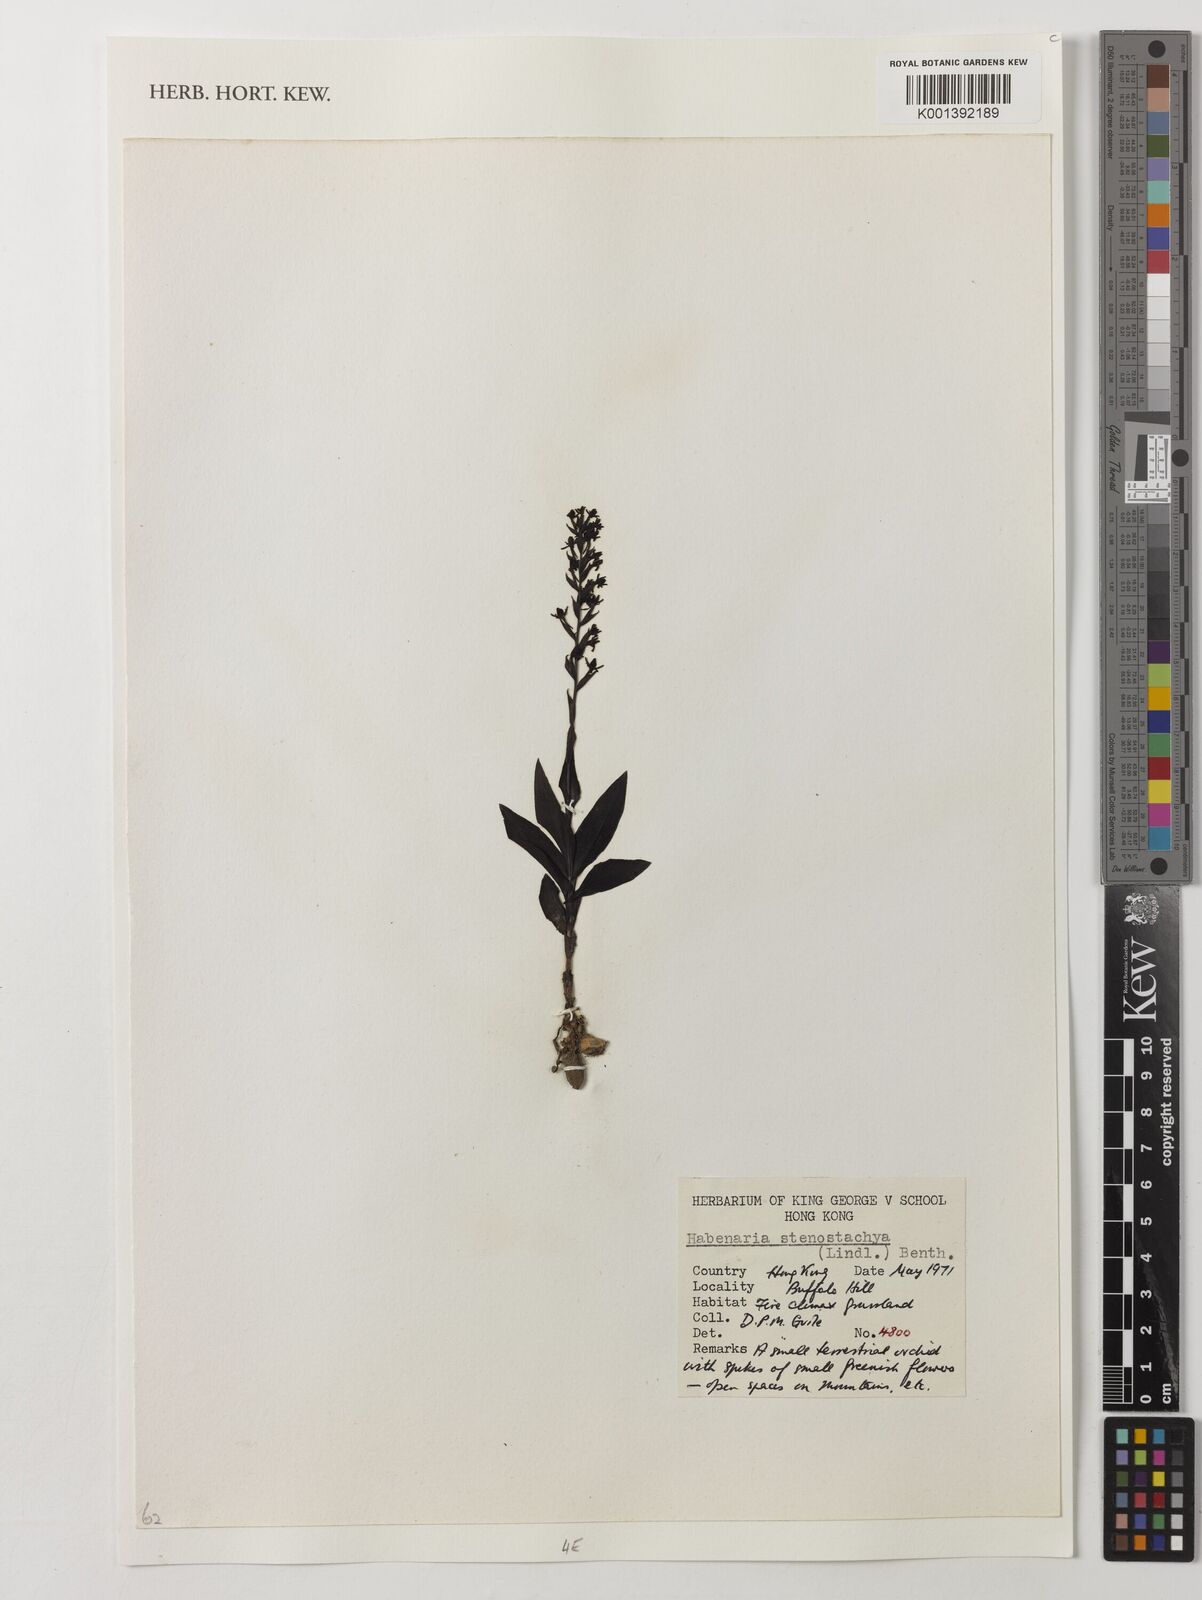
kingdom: Plantae
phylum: Tracheophyta
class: Liliopsida
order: Asparagales
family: Orchidaceae
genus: Peristylus
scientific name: Peristylus densus
